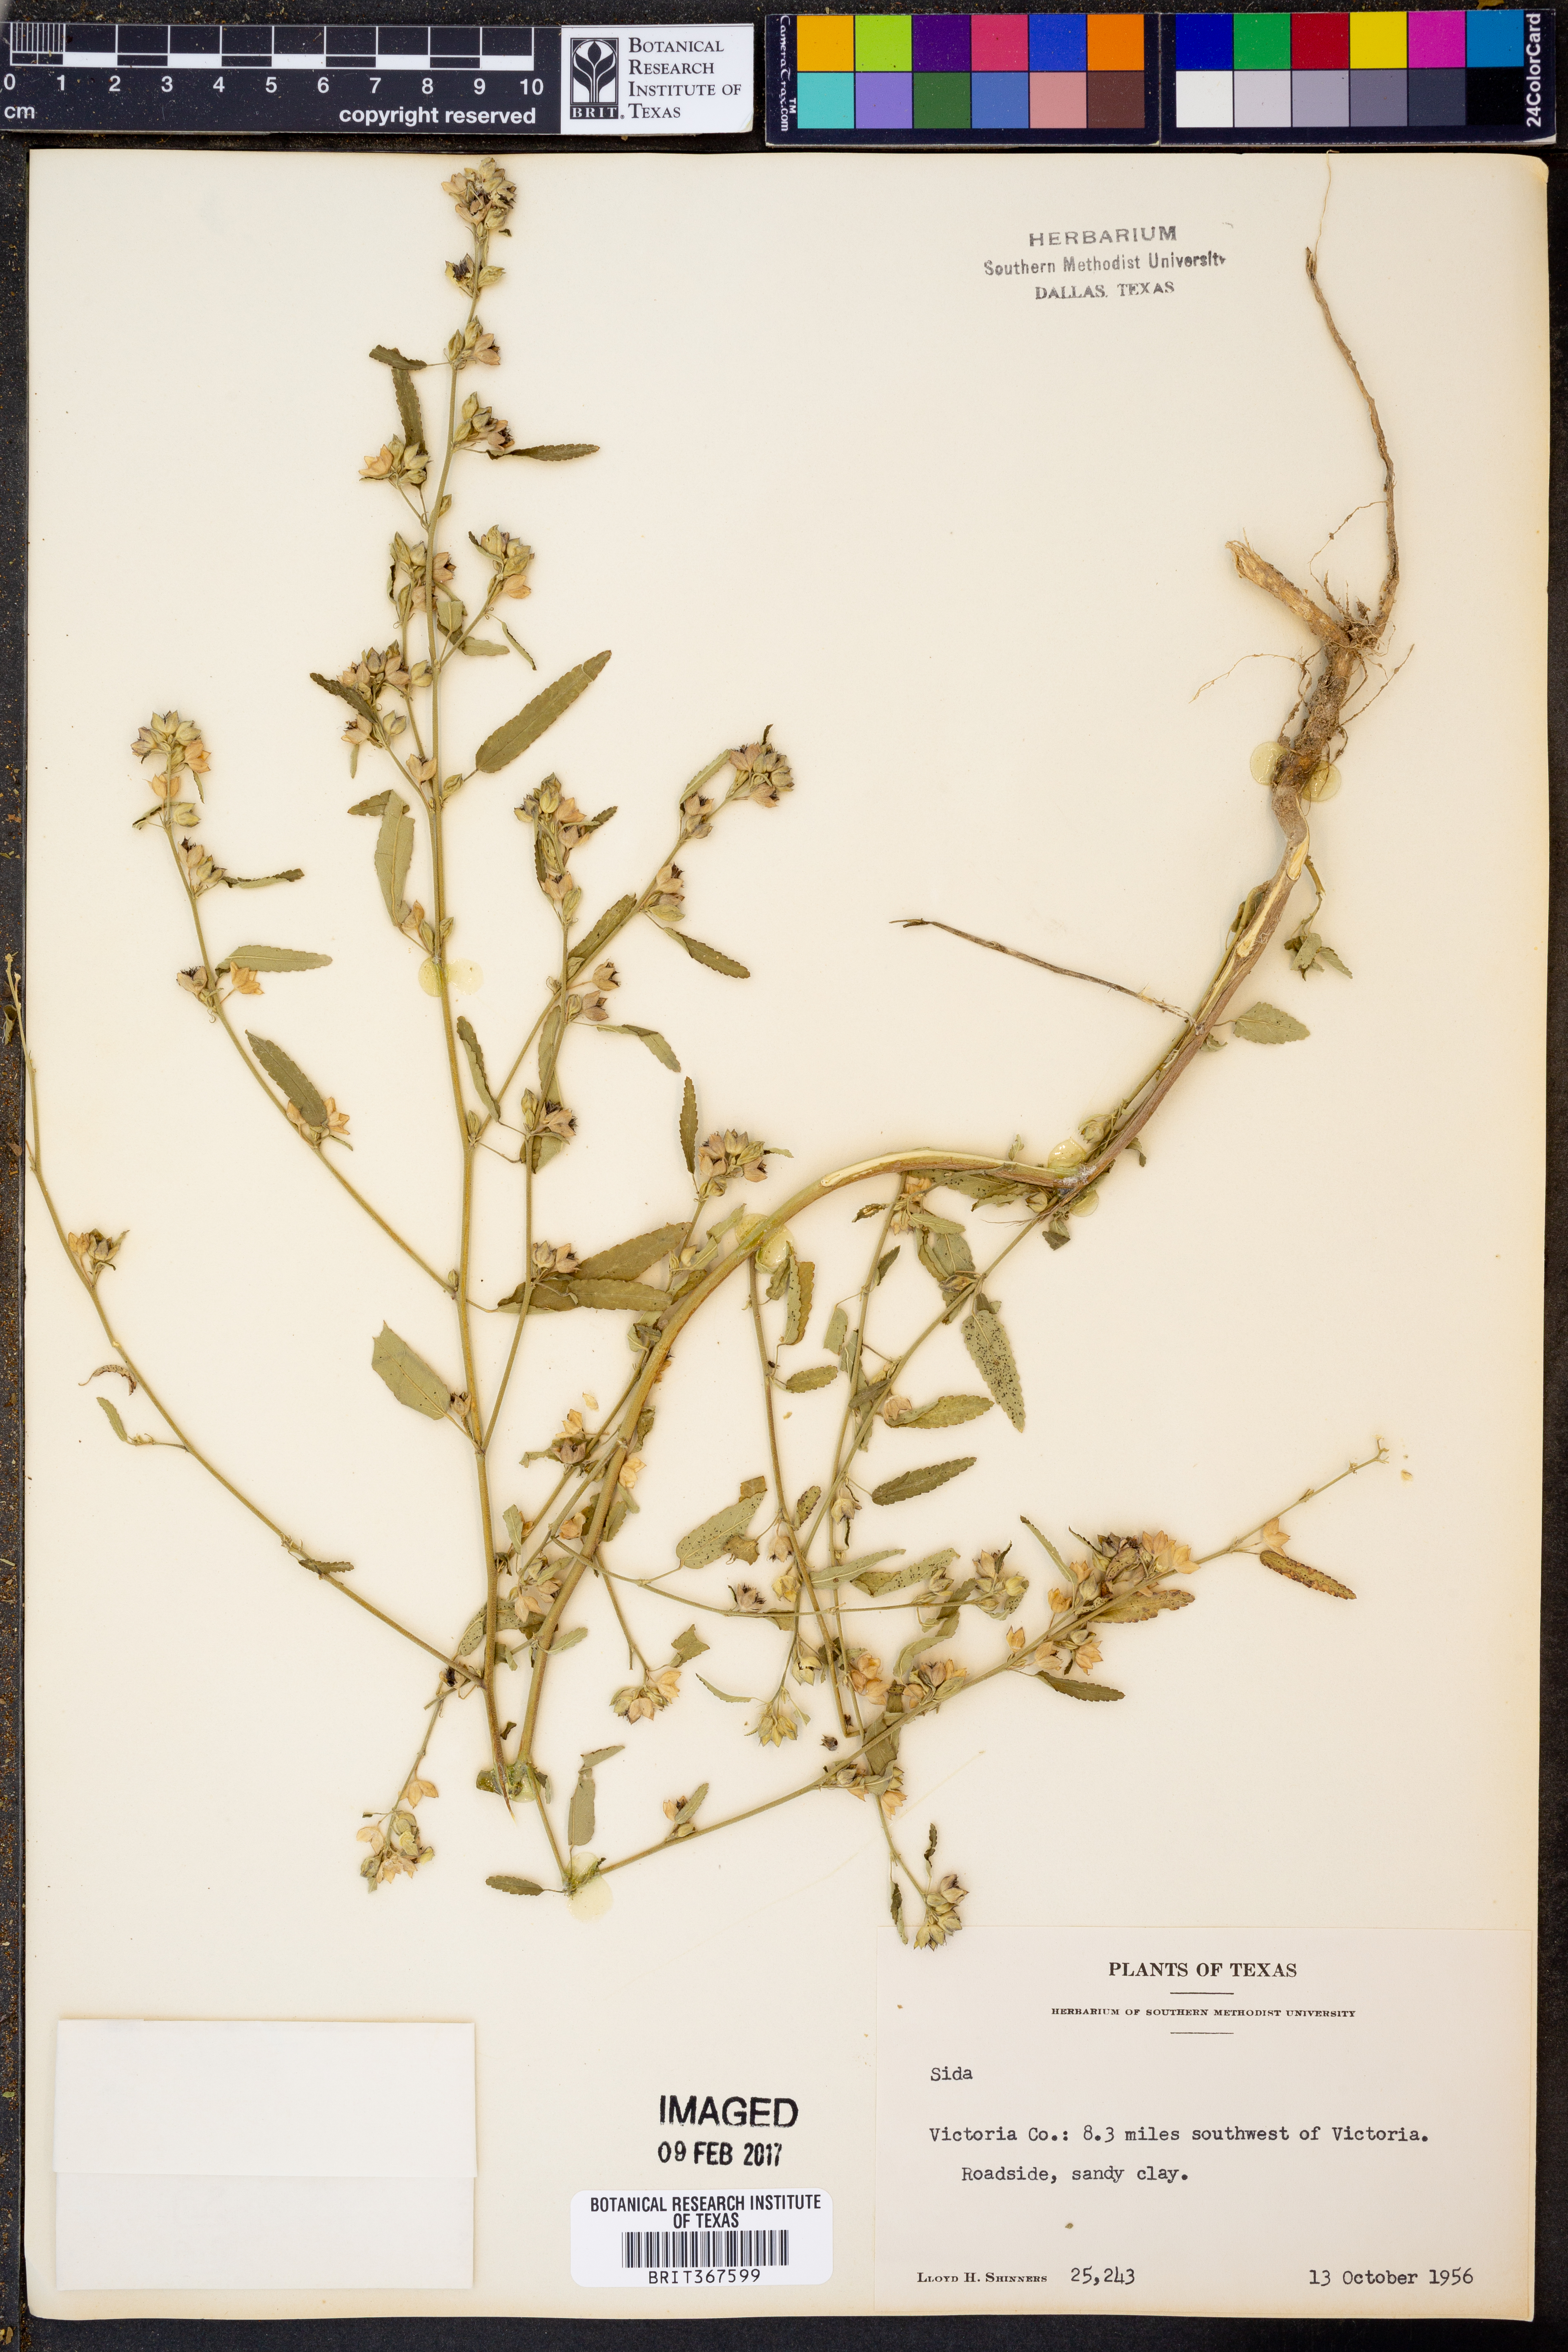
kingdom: Plantae
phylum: Tracheophyta
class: Magnoliopsida
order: Malvales
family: Malvaceae
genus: Sida
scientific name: Sida
